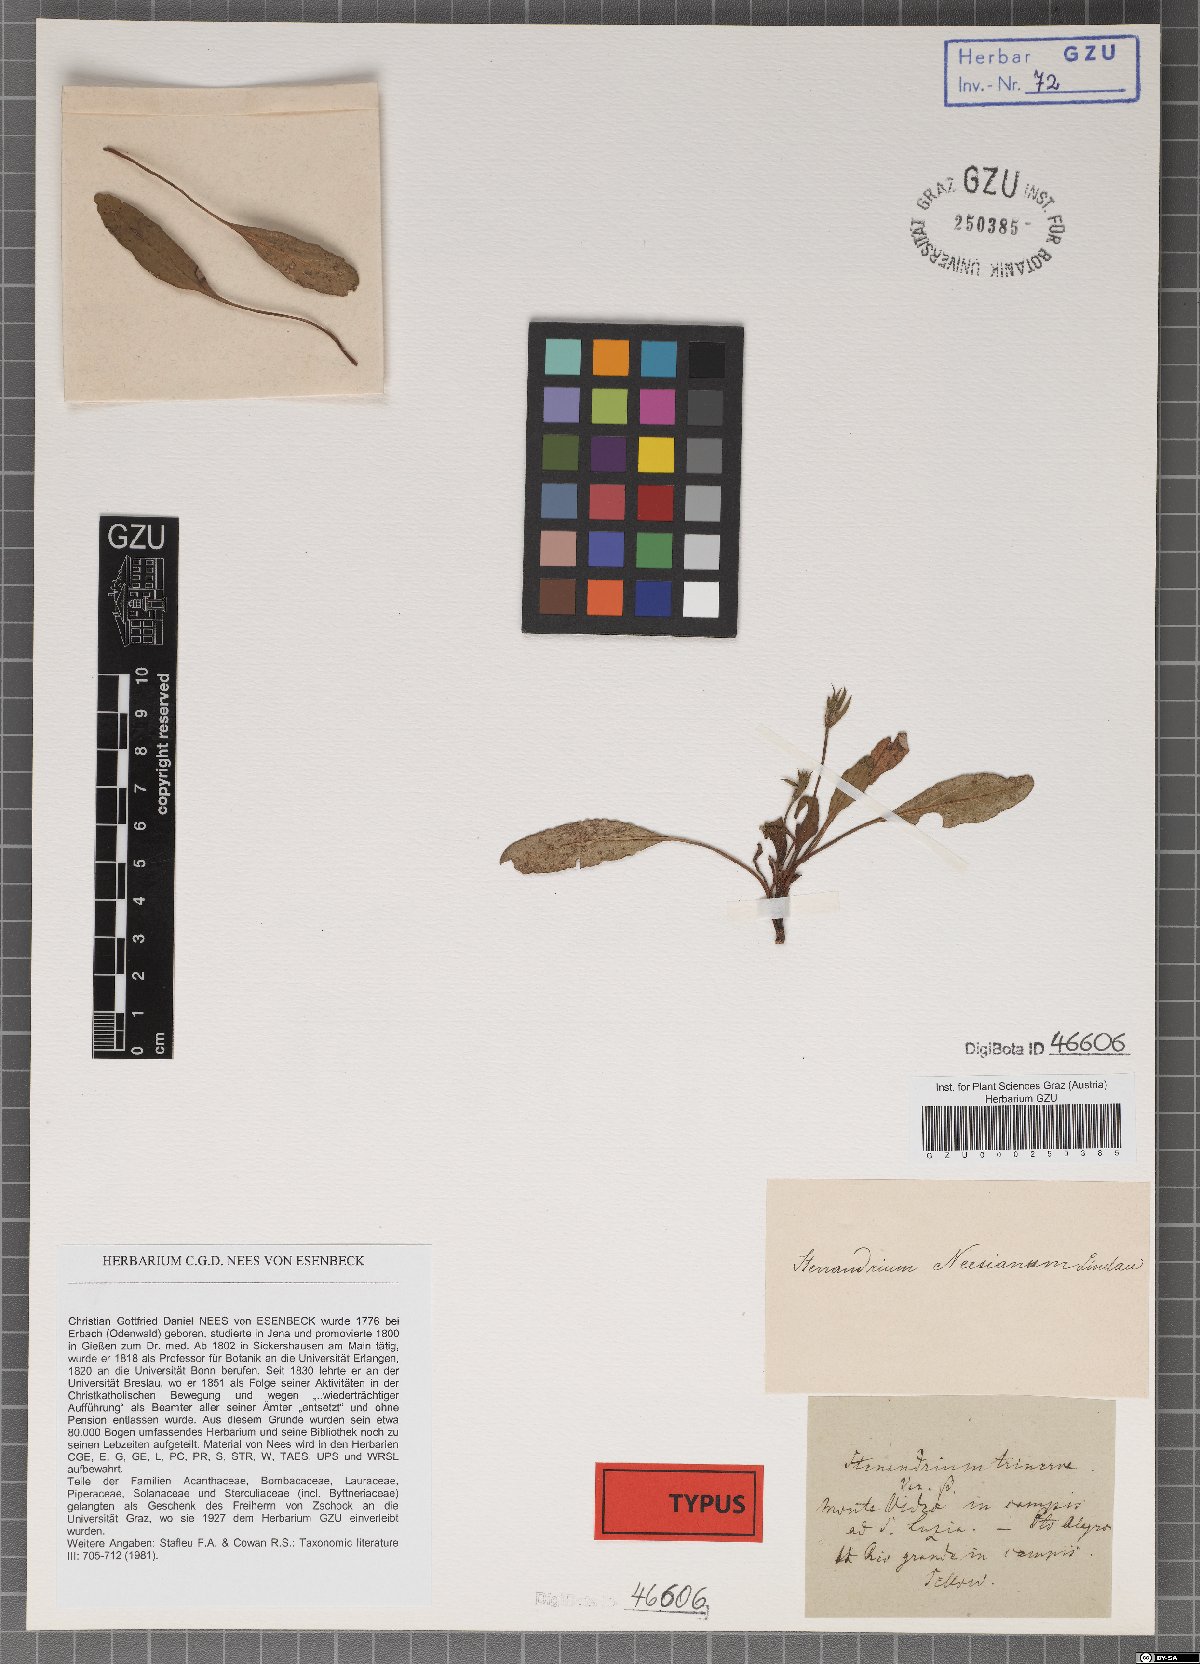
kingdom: Plantae
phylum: Tracheophyta
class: Magnoliopsida
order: Lamiales
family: Acanthaceae
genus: Stenandrium
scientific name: Stenandrium dulce
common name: Pinklet
